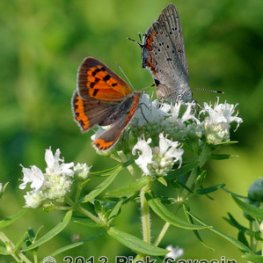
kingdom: Animalia
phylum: Arthropoda
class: Insecta
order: Lepidoptera
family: Lycaenidae
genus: Lycaena
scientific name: Lycaena phlaeas
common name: American Copper
